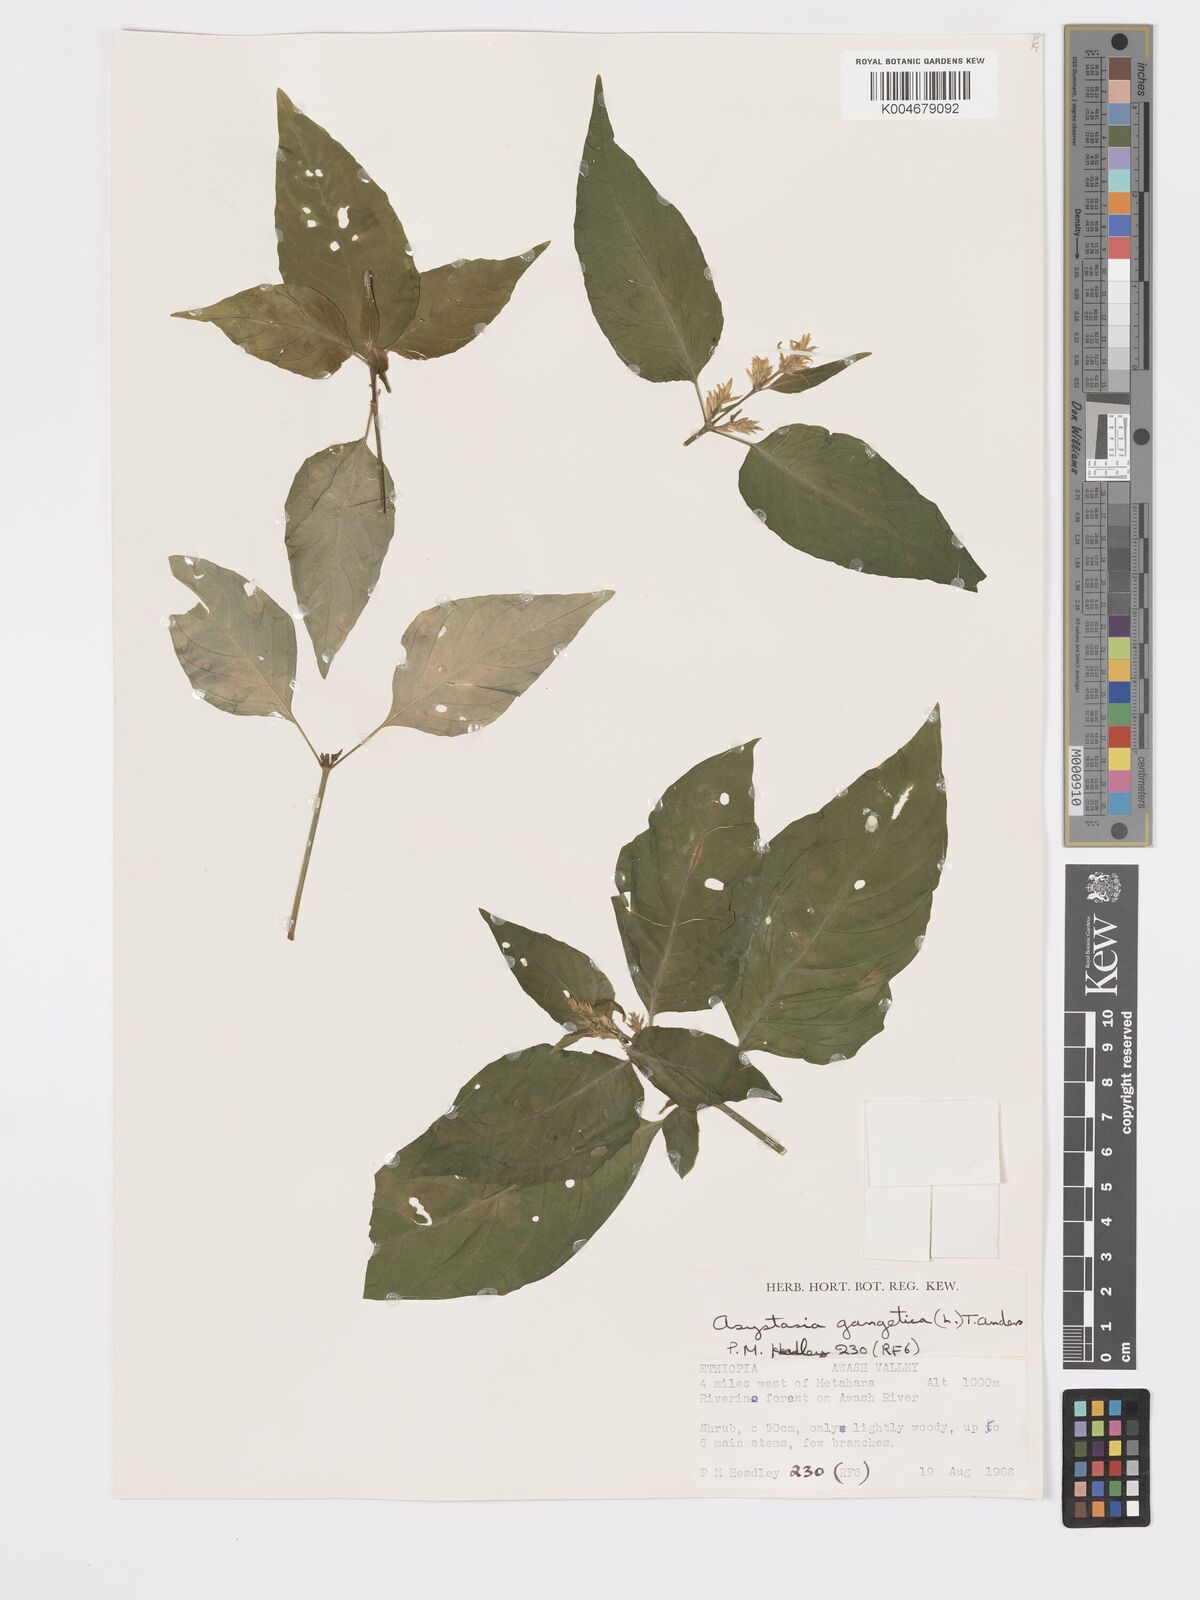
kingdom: Plantae
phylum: Tracheophyta
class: Magnoliopsida
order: Lamiales
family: Acanthaceae
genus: Hypoestes
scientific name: Hypoestes forskaolii
